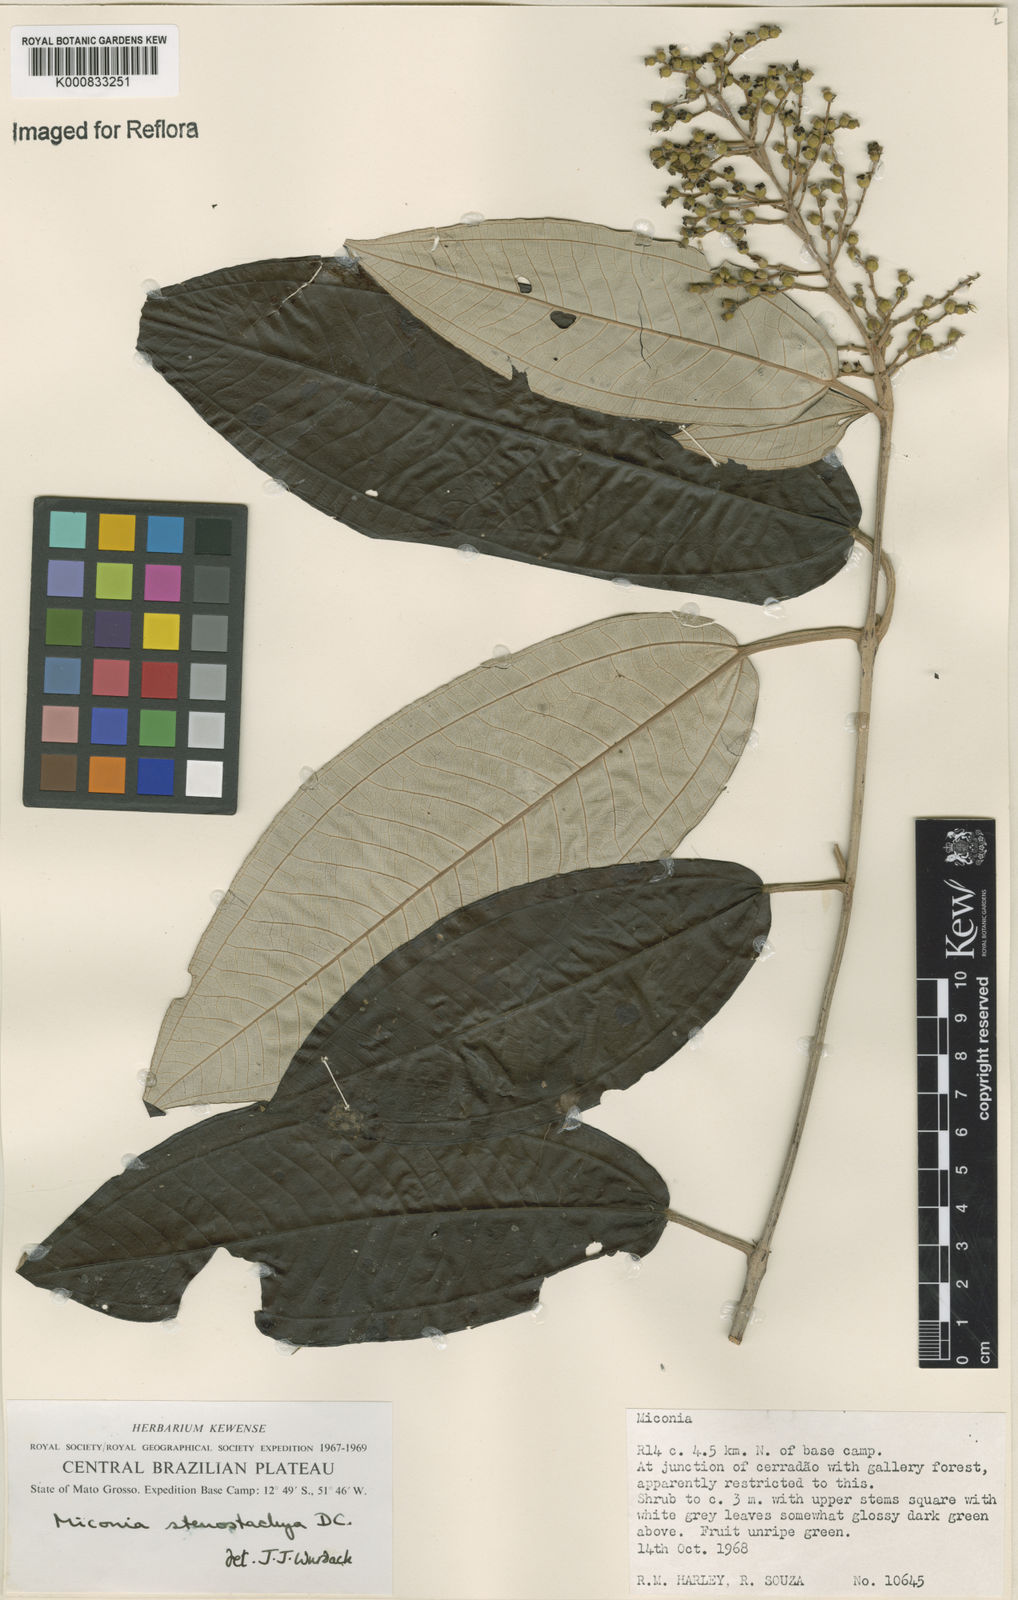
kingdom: Plantae
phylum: Tracheophyta
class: Magnoliopsida
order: Myrtales
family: Melastomataceae
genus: Miconia
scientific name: Miconia stenostachya
